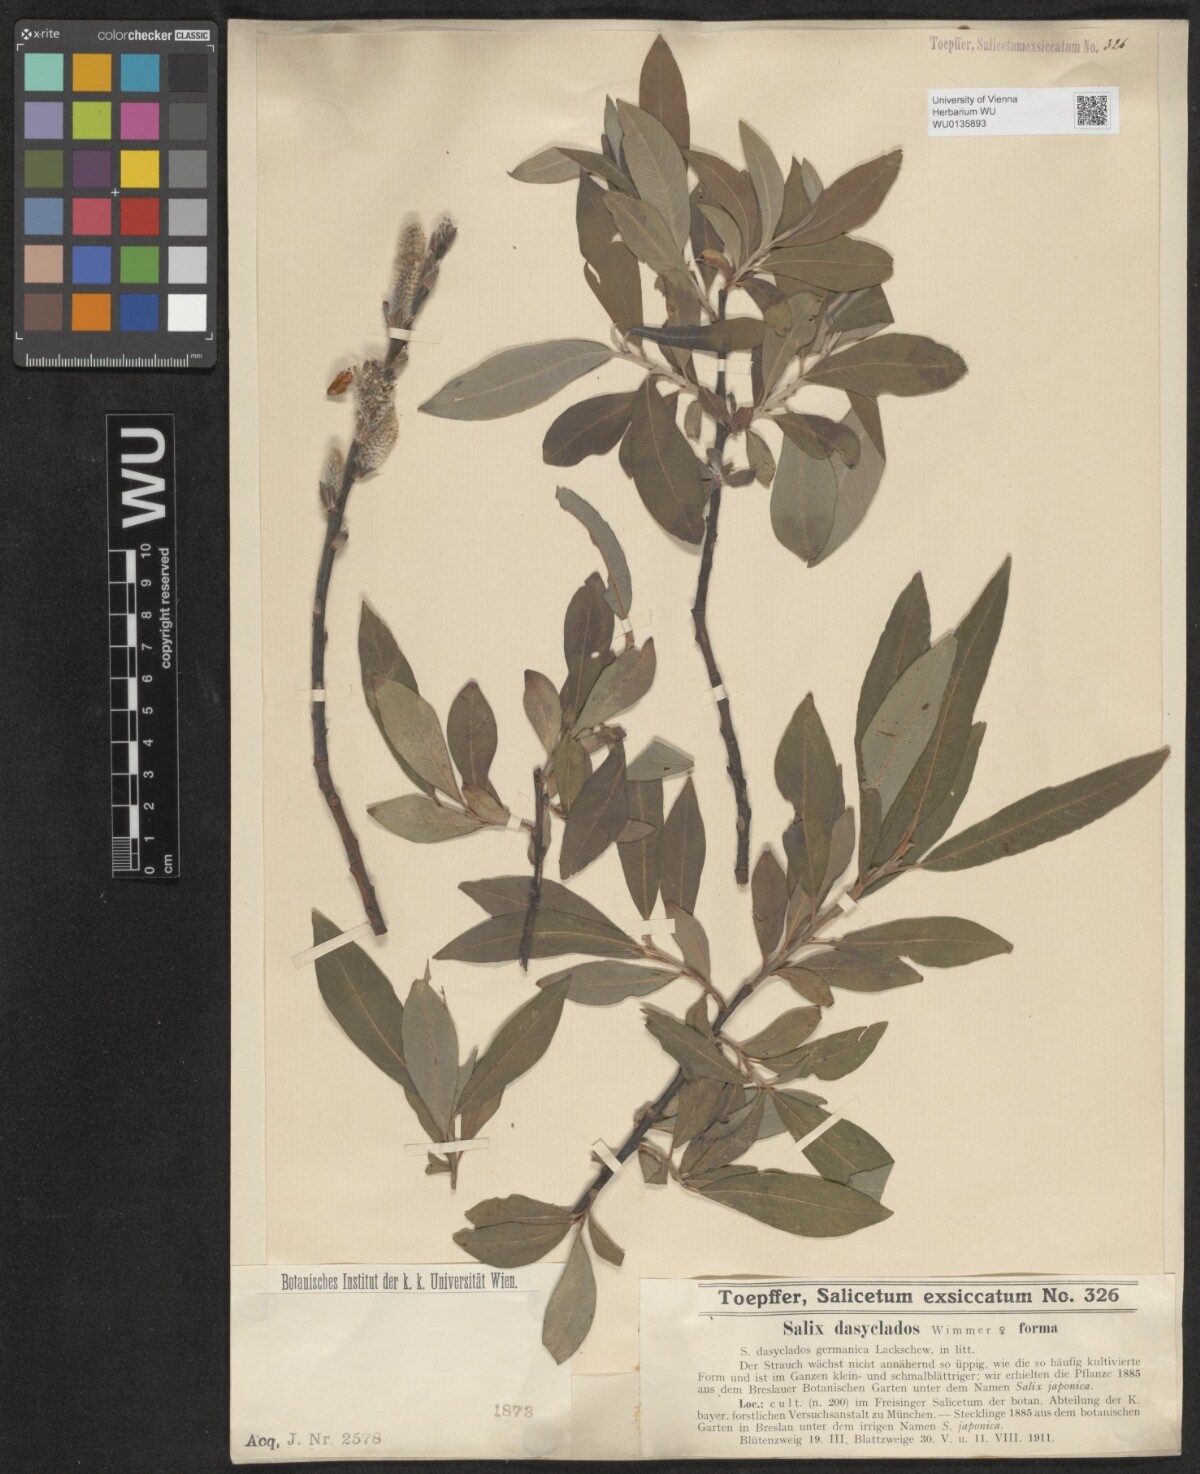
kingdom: Plantae
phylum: Tracheophyta
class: Magnoliopsida
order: Malpighiales
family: Salicaceae
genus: Salix
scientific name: Salix
